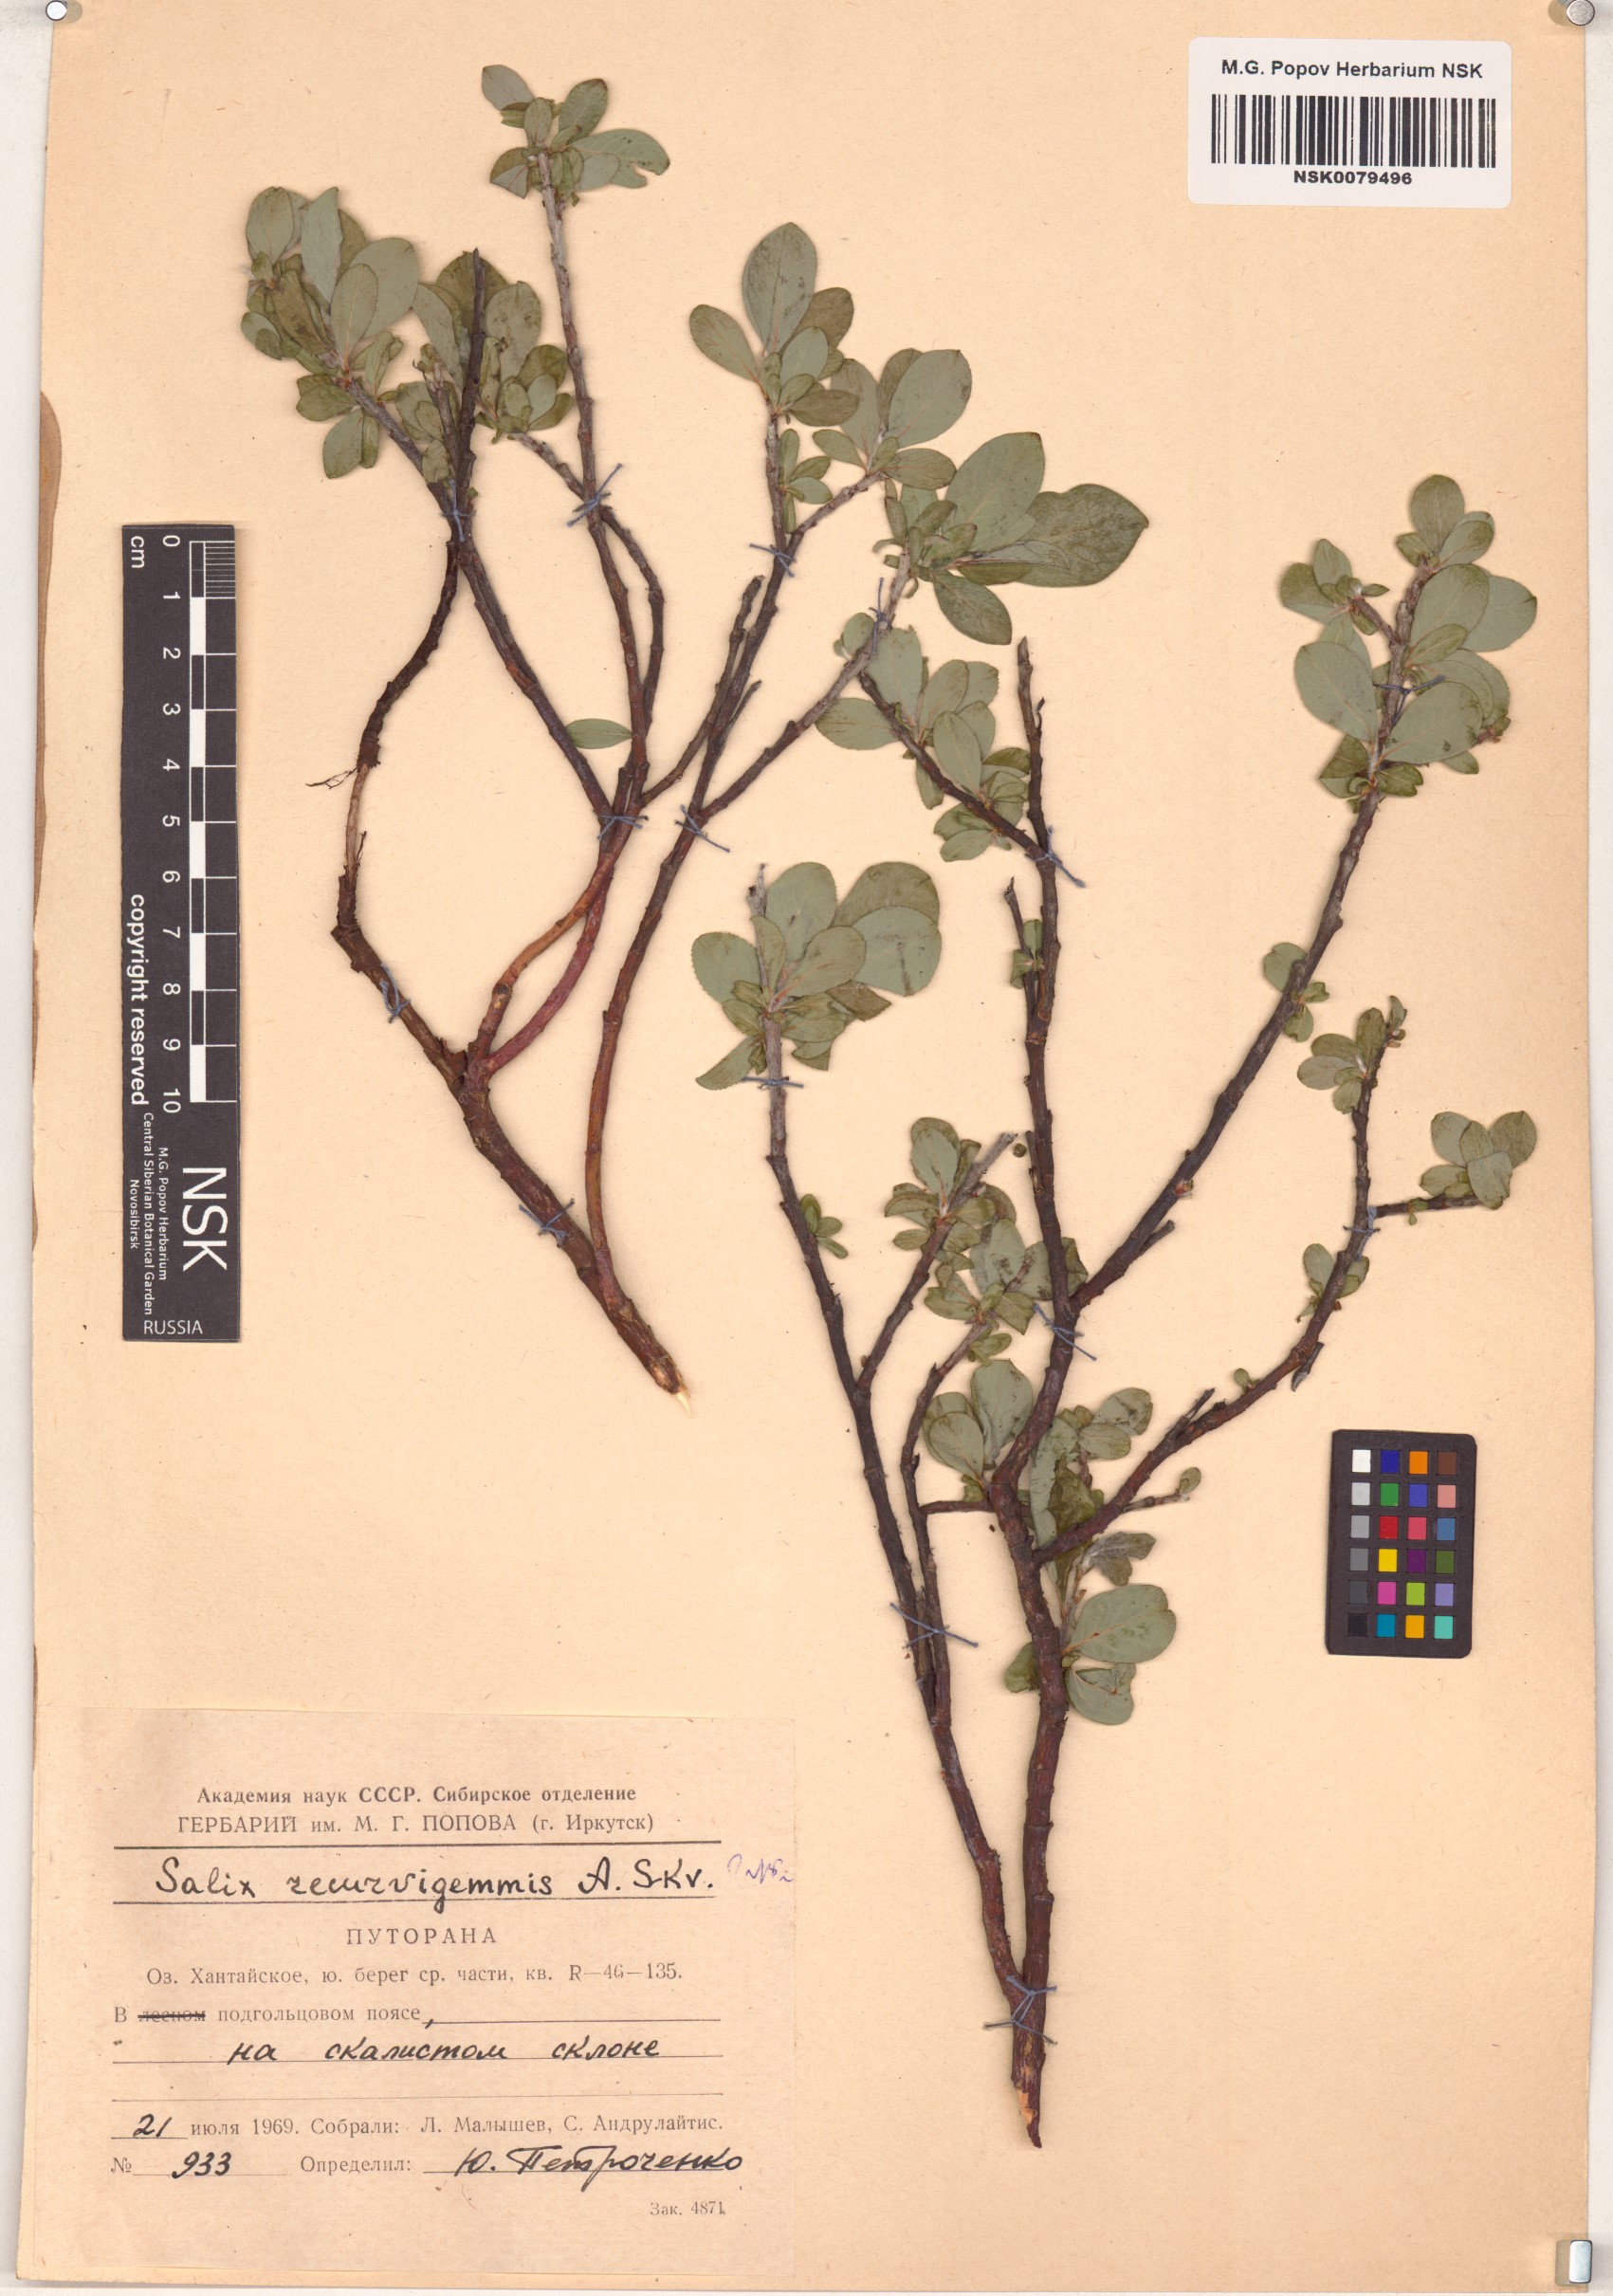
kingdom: Plantae
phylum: Tracheophyta
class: Magnoliopsida
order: Malpighiales
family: Salicaceae
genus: Salix
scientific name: Salix recurvigemmata
